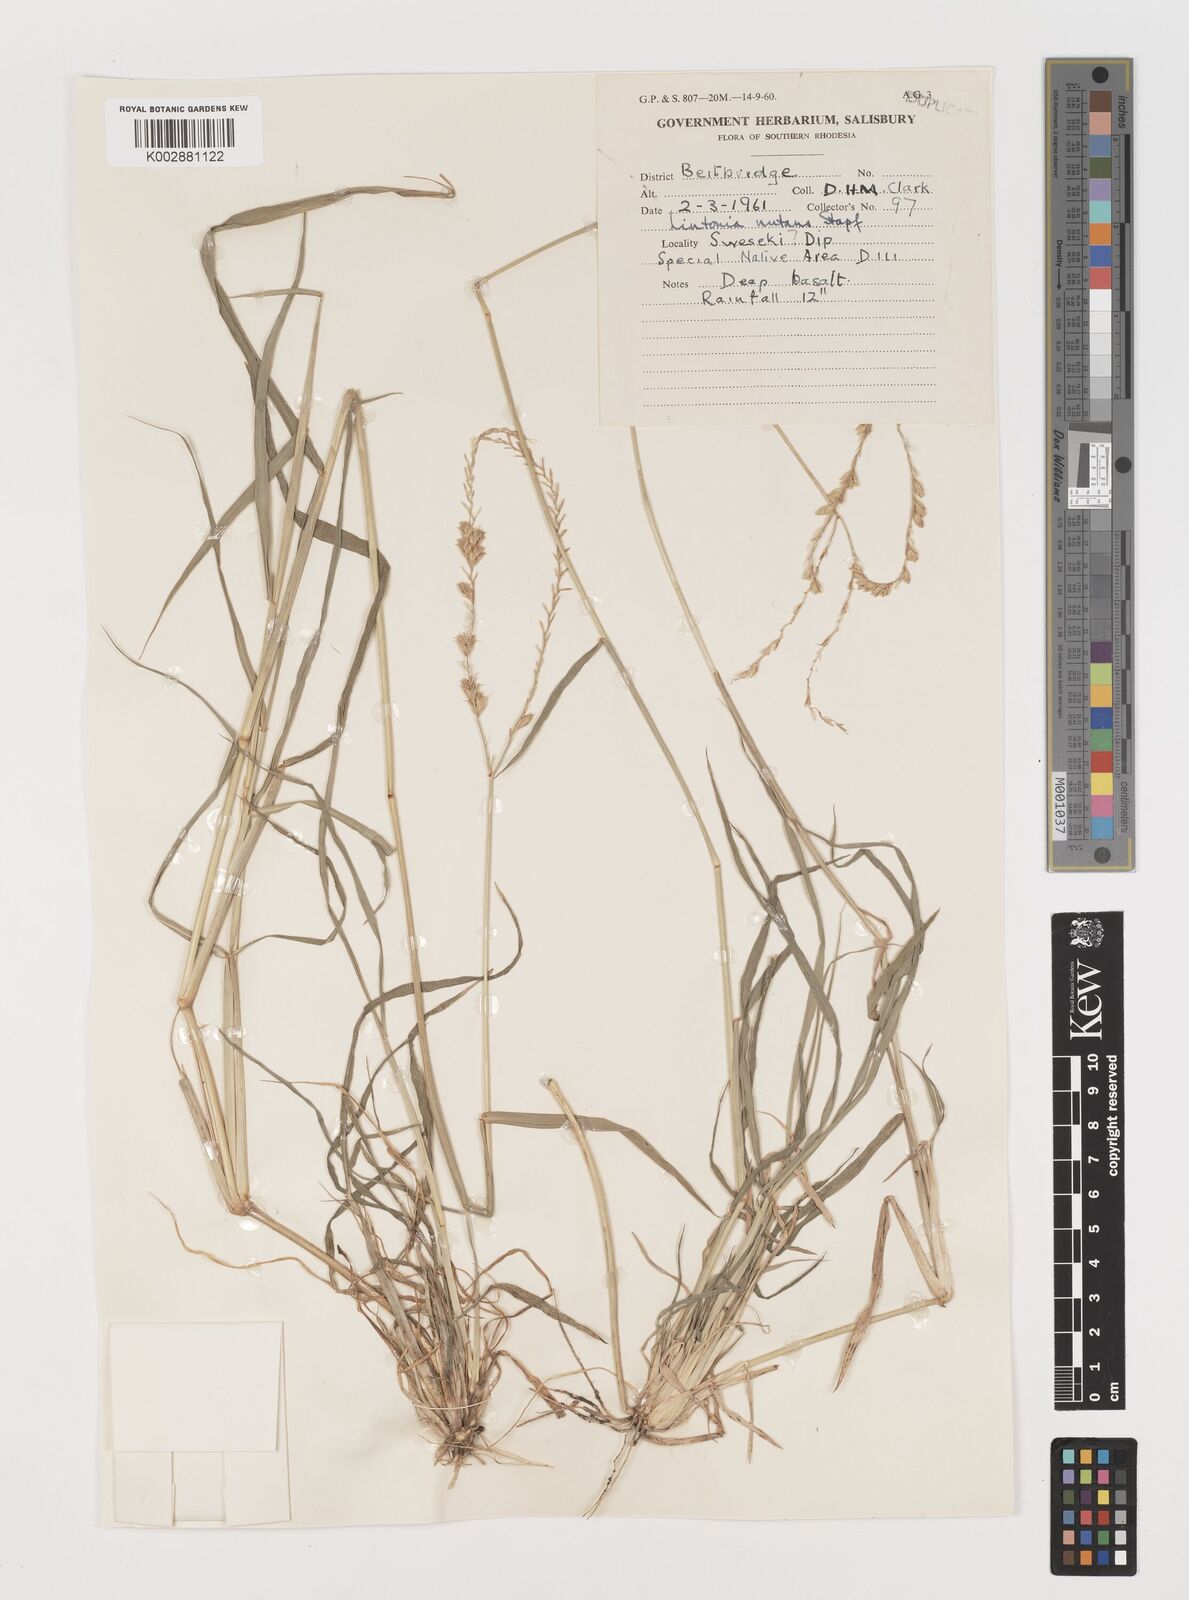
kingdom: Plantae
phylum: Tracheophyta
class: Liliopsida
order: Poales
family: Poaceae
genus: Chloris
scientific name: Chloris nutans
